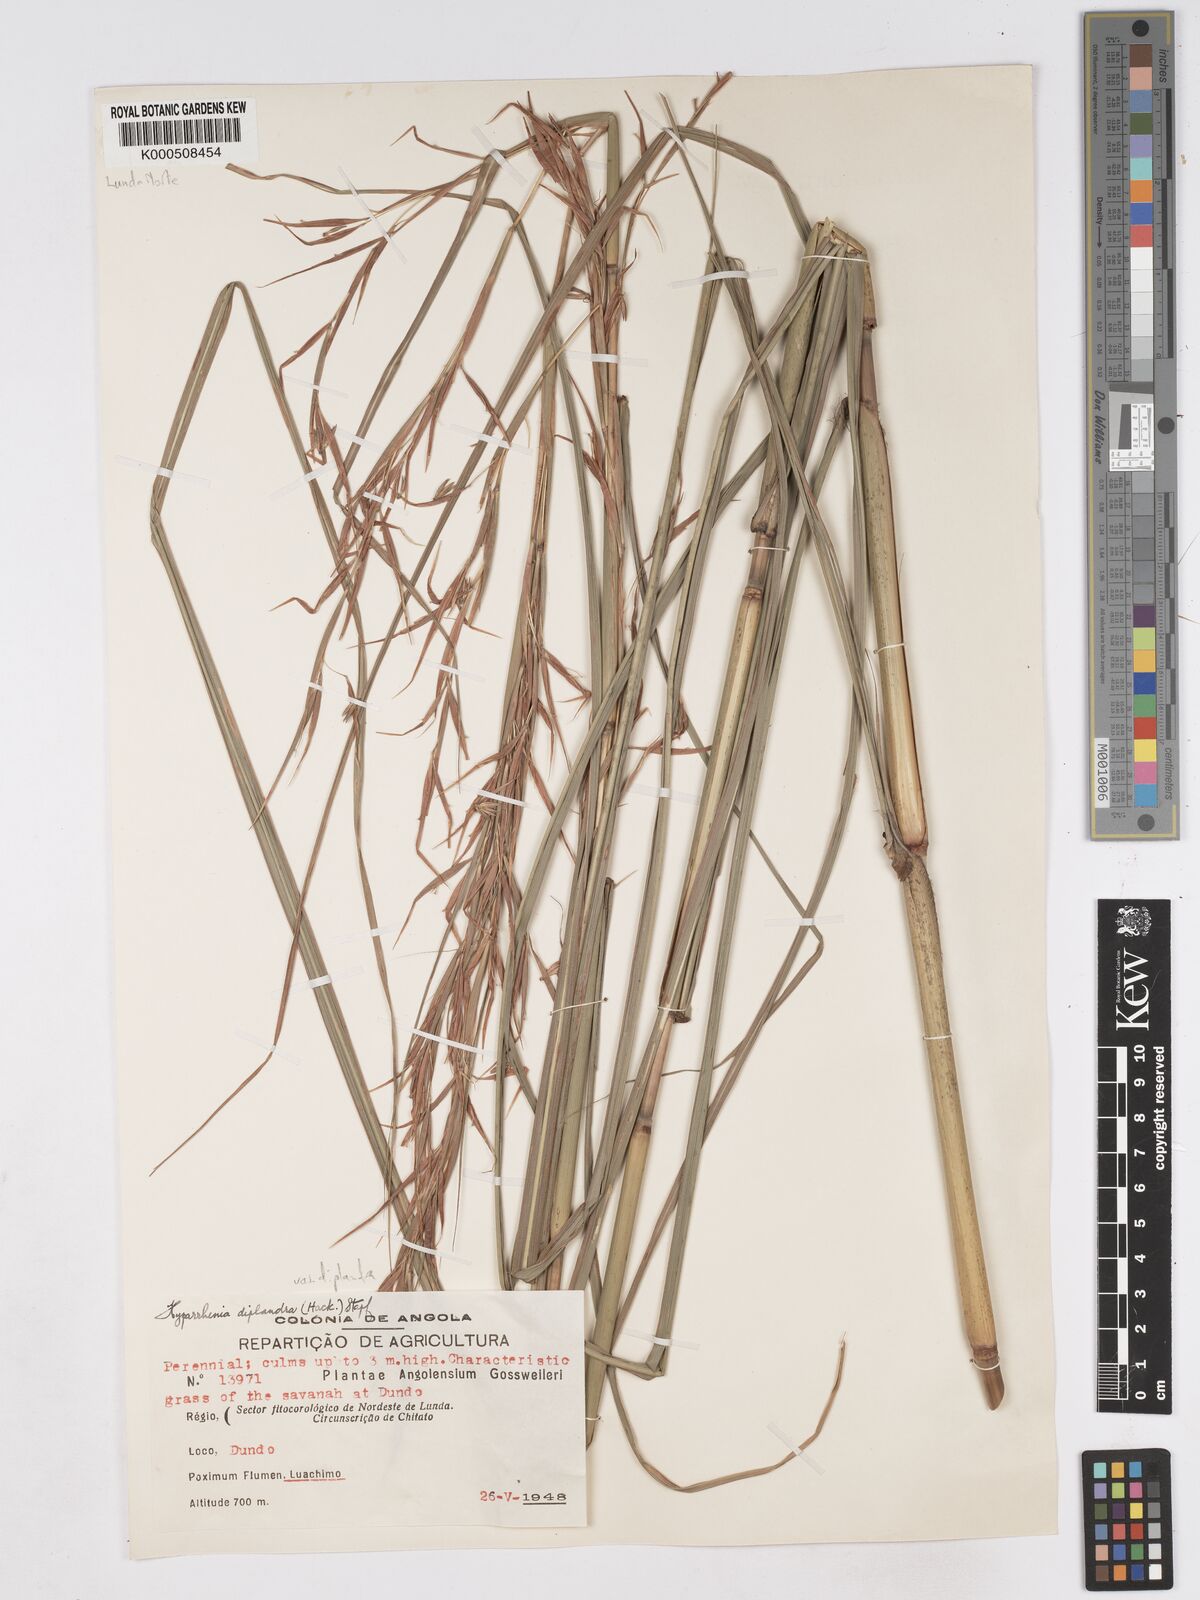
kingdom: Plantae
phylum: Tracheophyta
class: Liliopsida
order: Poales
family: Poaceae
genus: Hyparrhenia
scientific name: Hyparrhenia diplandra
